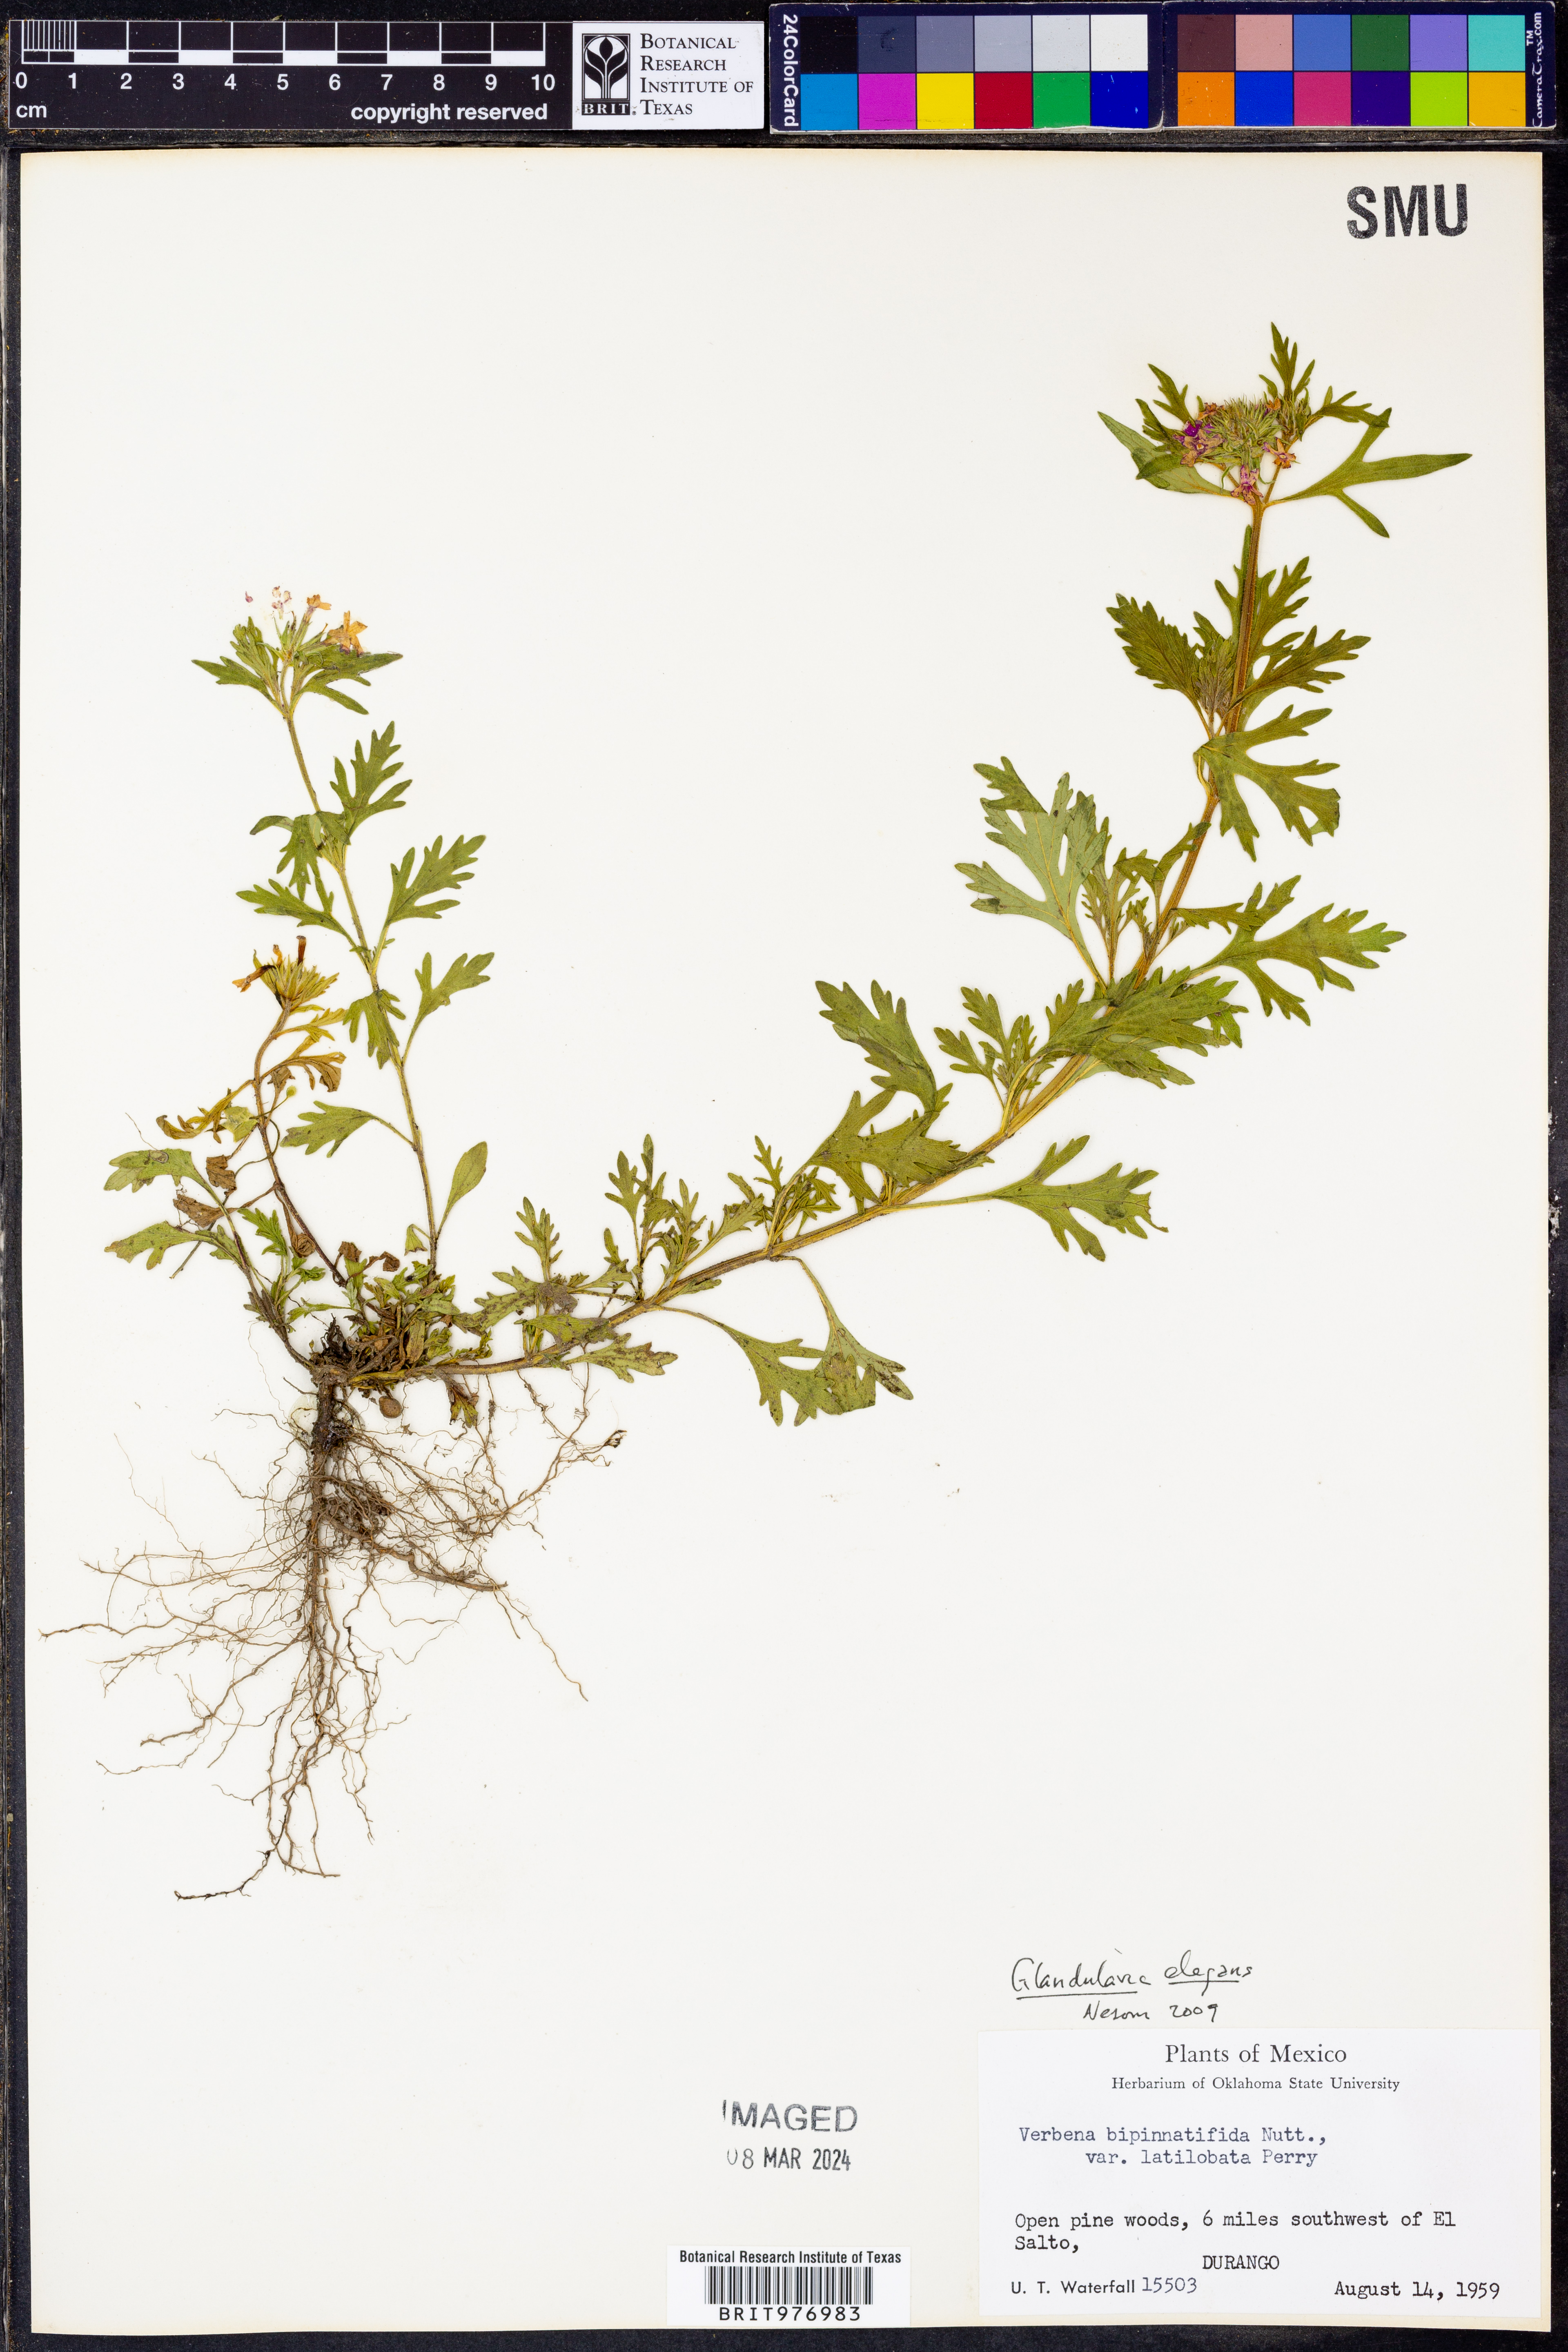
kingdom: Plantae
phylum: Tracheophyta
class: Magnoliopsida
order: Lamiales
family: Verbenaceae
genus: Verbena
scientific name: Verbena elegans
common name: Elegant vervain
